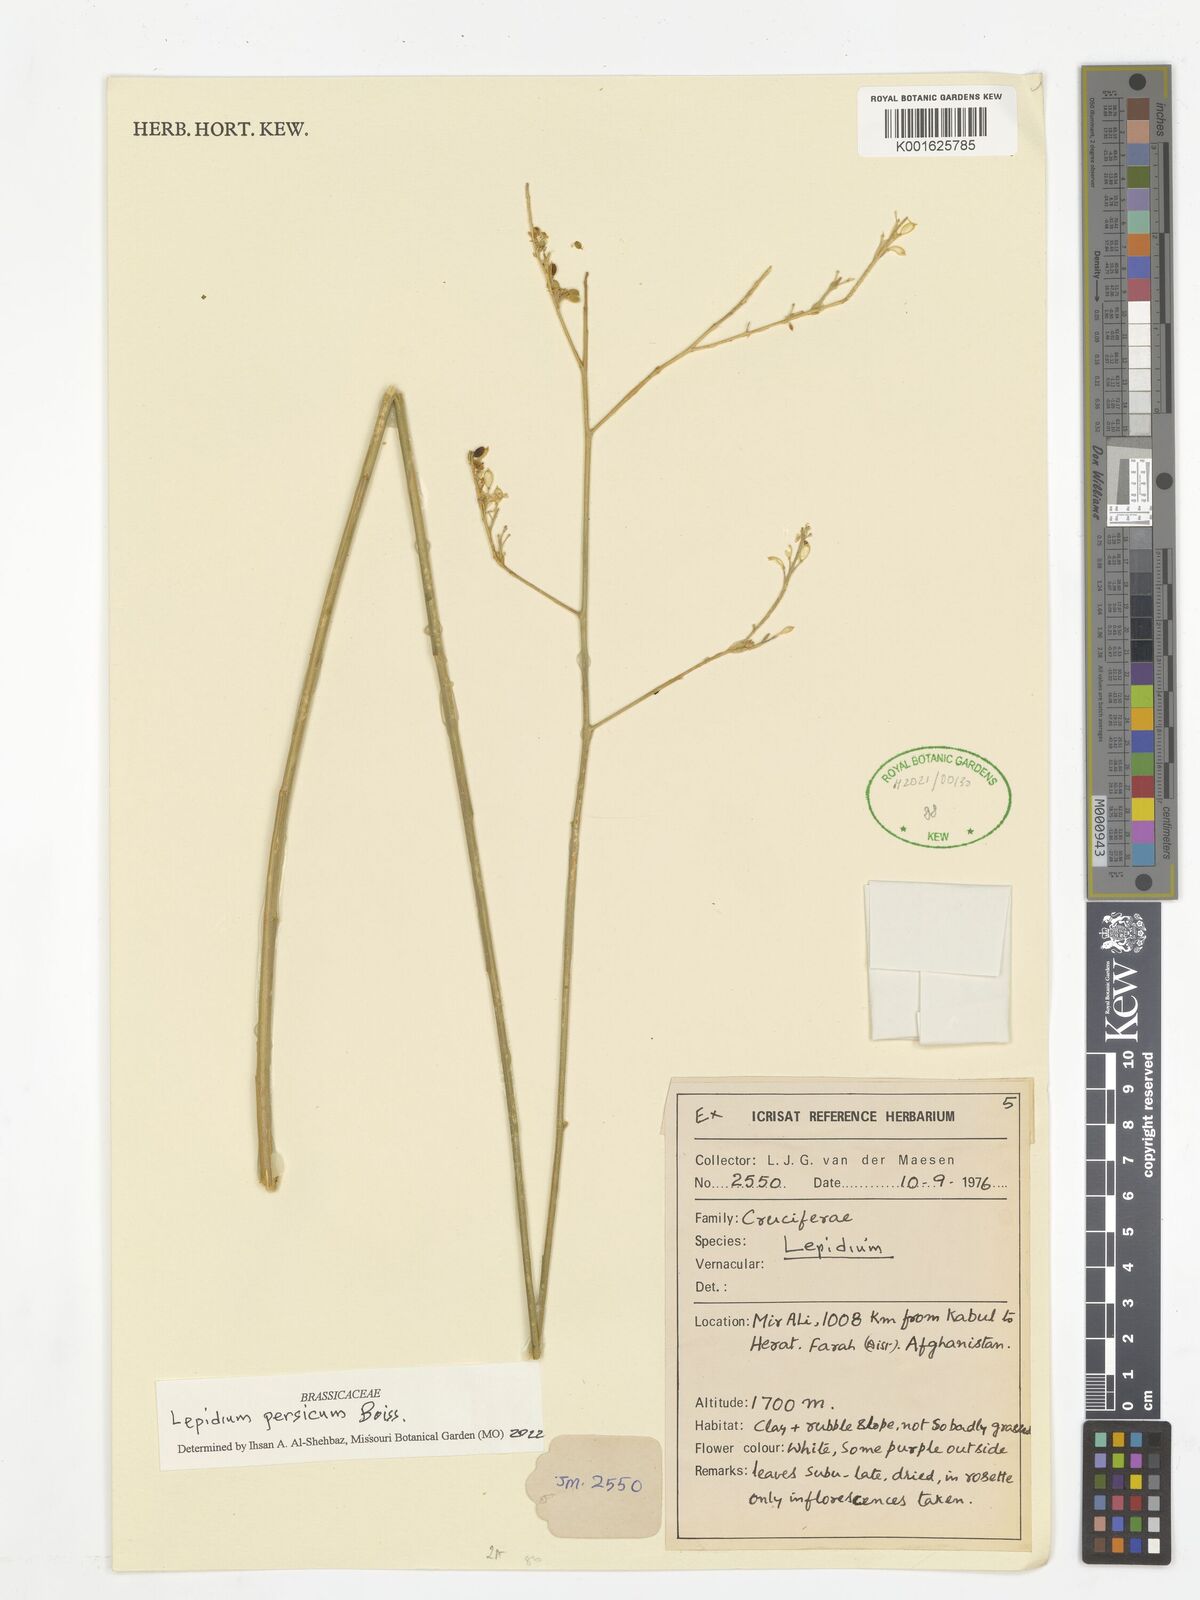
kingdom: Plantae
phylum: Tracheophyta
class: Magnoliopsida
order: Brassicales
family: Brassicaceae
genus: Lepidium
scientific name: Lepidium persicum
